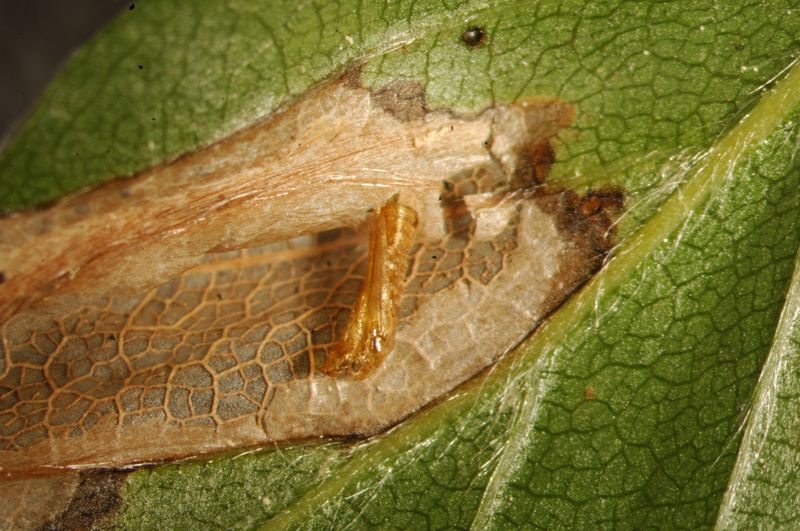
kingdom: Animalia
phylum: Arthropoda
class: Insecta
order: Lepidoptera
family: Gracillariidae
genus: Phyllonorycter
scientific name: Phyllonorycter maestingella
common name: Beech midget
